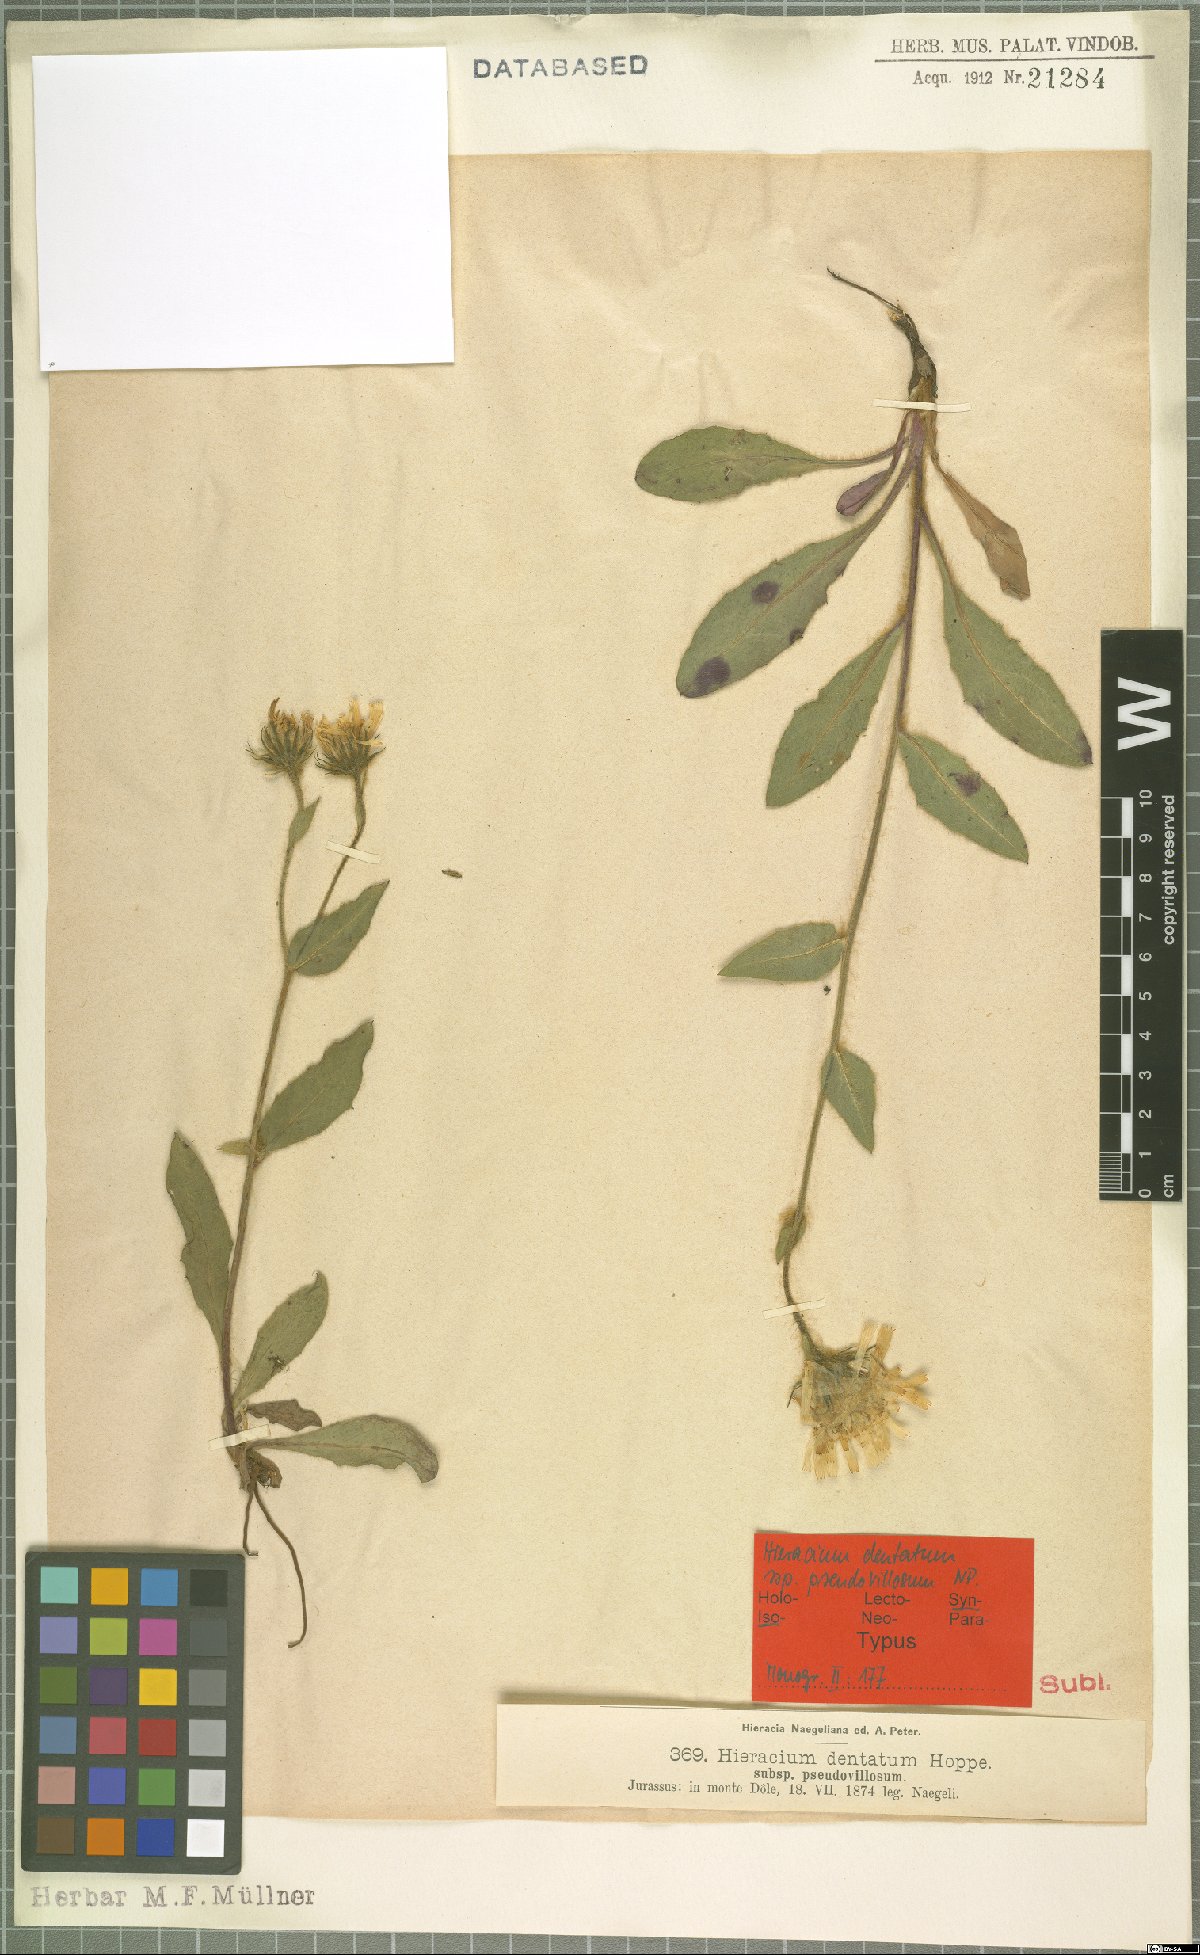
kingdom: Plantae
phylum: Tracheophyta
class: Magnoliopsida
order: Asterales
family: Asteraceae
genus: Hieracium
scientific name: Hieracium dentatum
